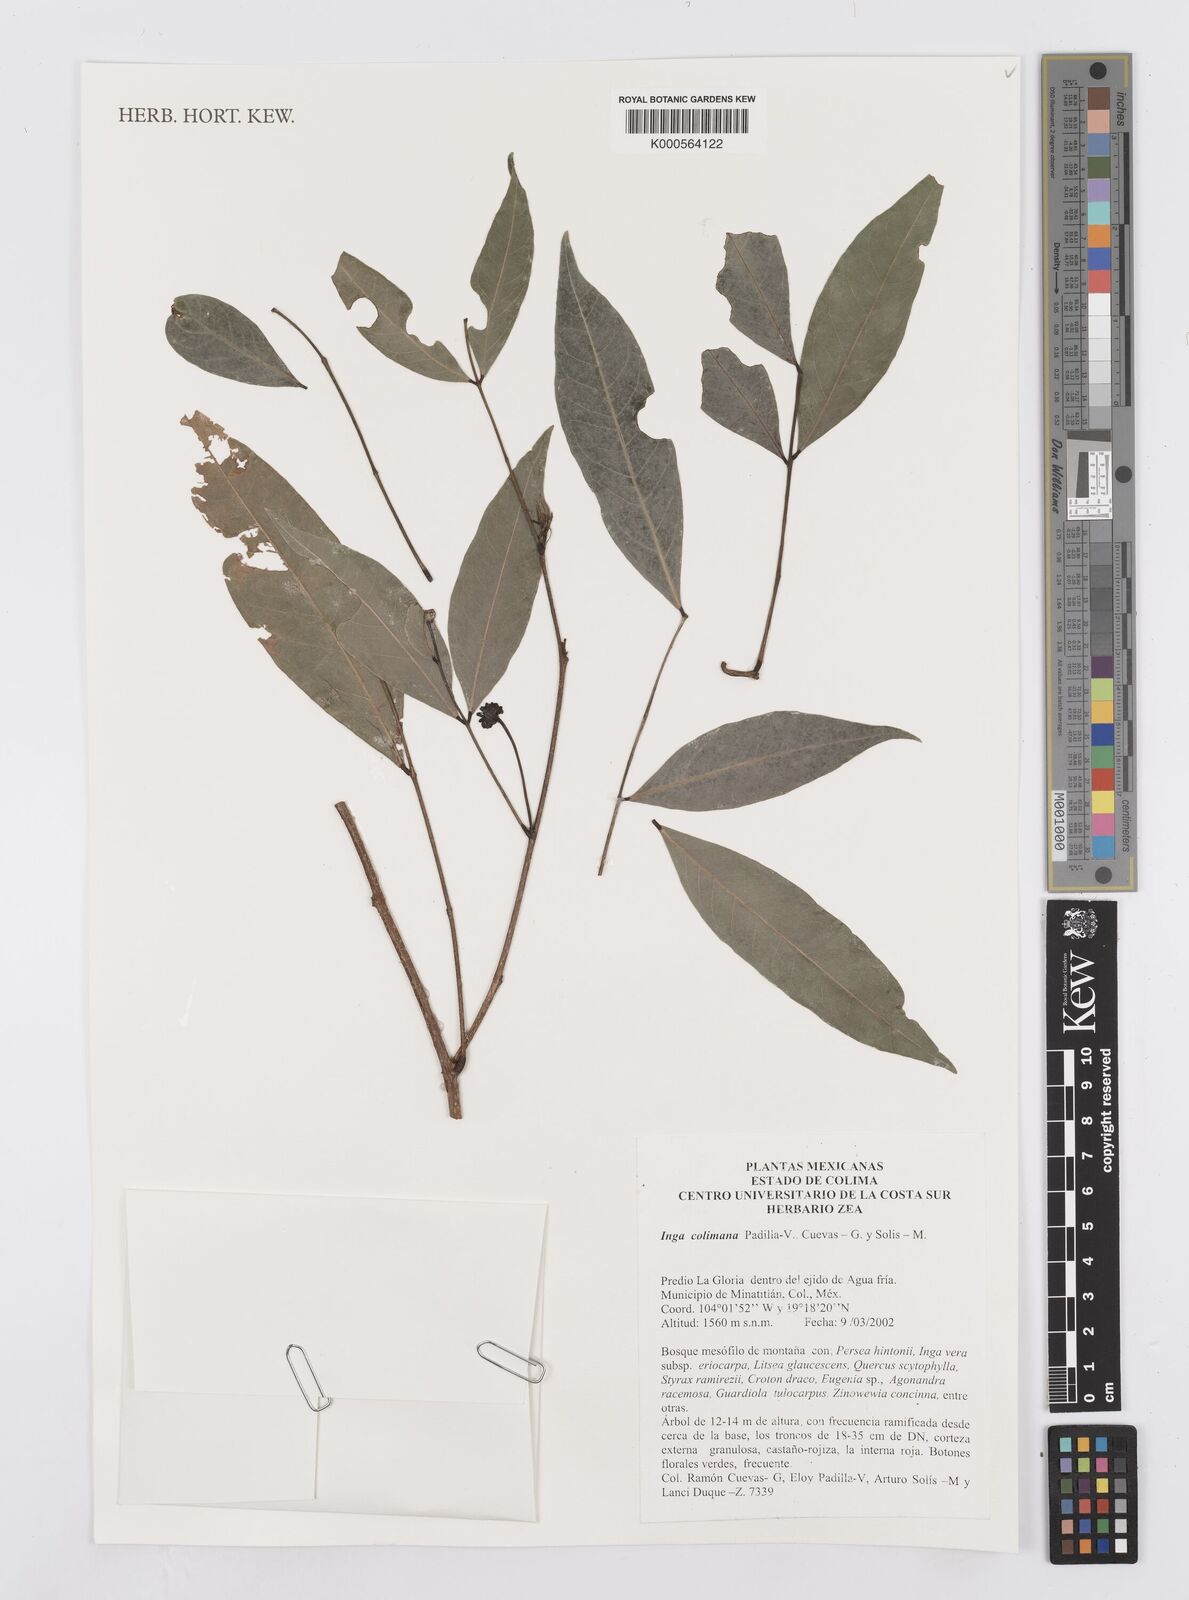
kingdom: Plantae
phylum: Tracheophyta
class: Magnoliopsida
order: Fabales
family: Fabaceae
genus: Inga
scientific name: Inga
